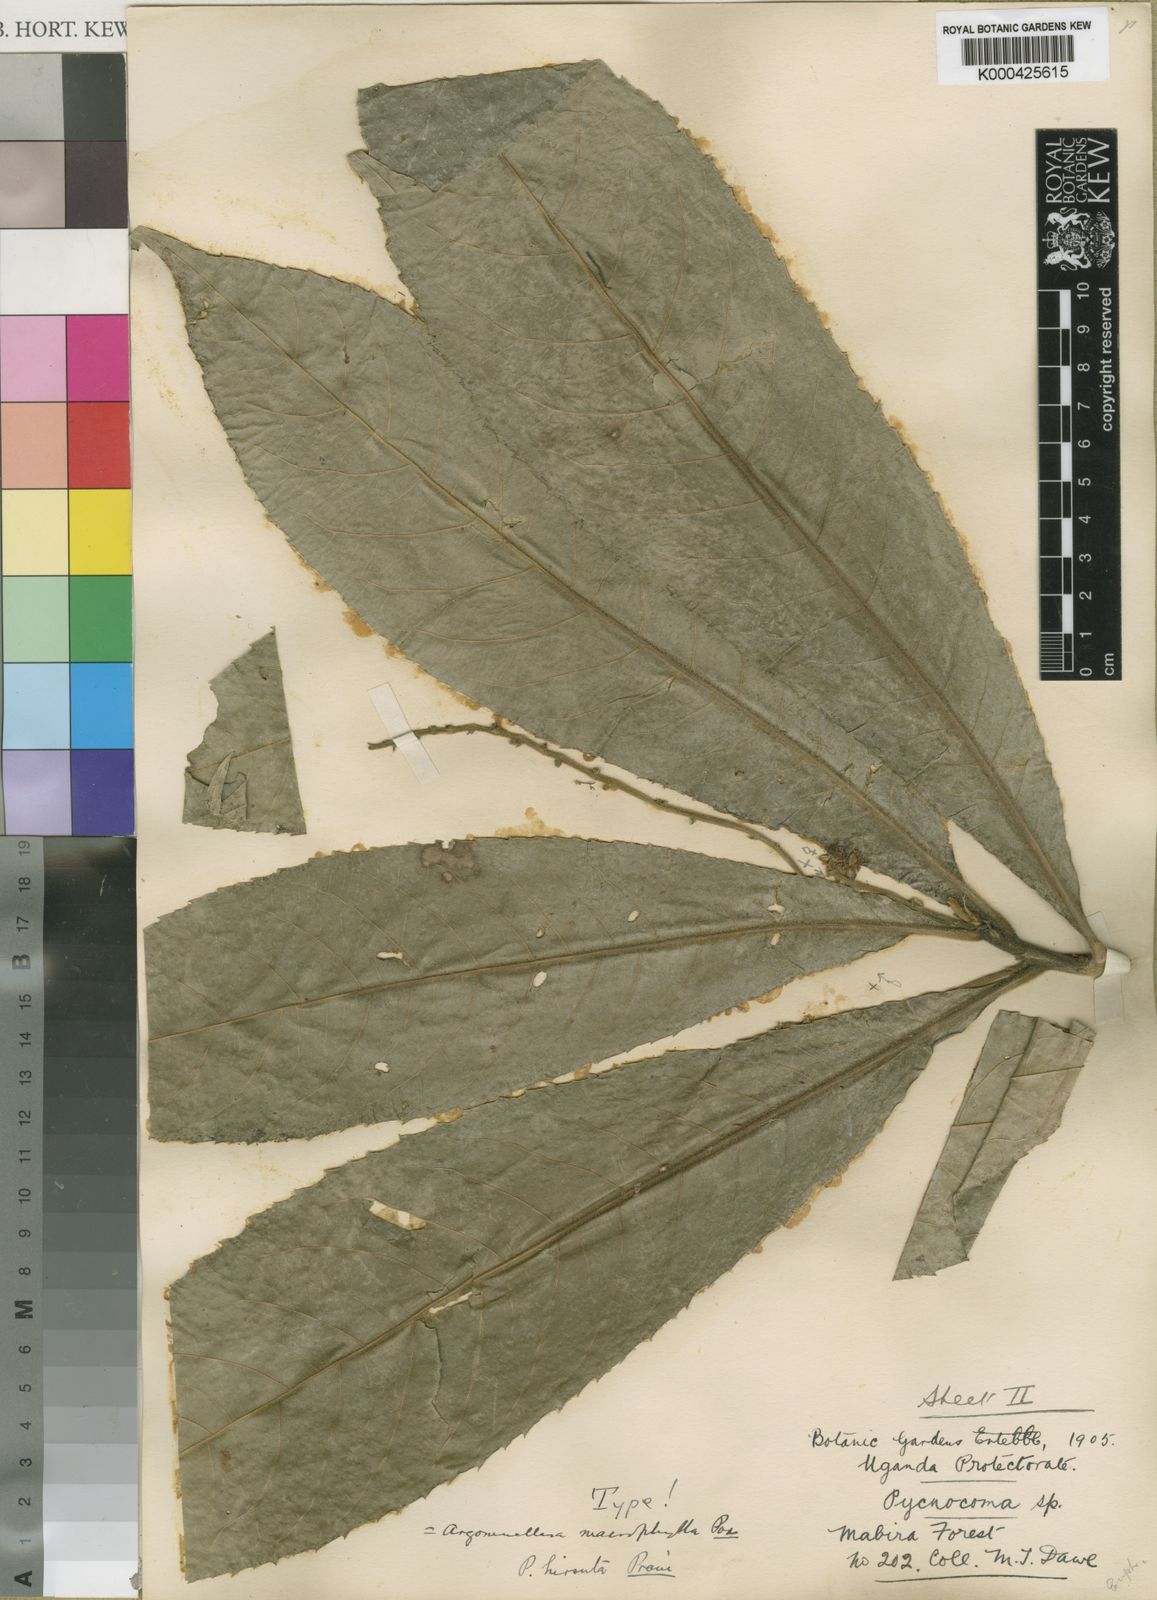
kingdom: Plantae
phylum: Tracheophyta
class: Magnoliopsida
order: Malpighiales
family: Euphorbiaceae
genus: Argomuellera
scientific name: Argomuellera macrophylla
